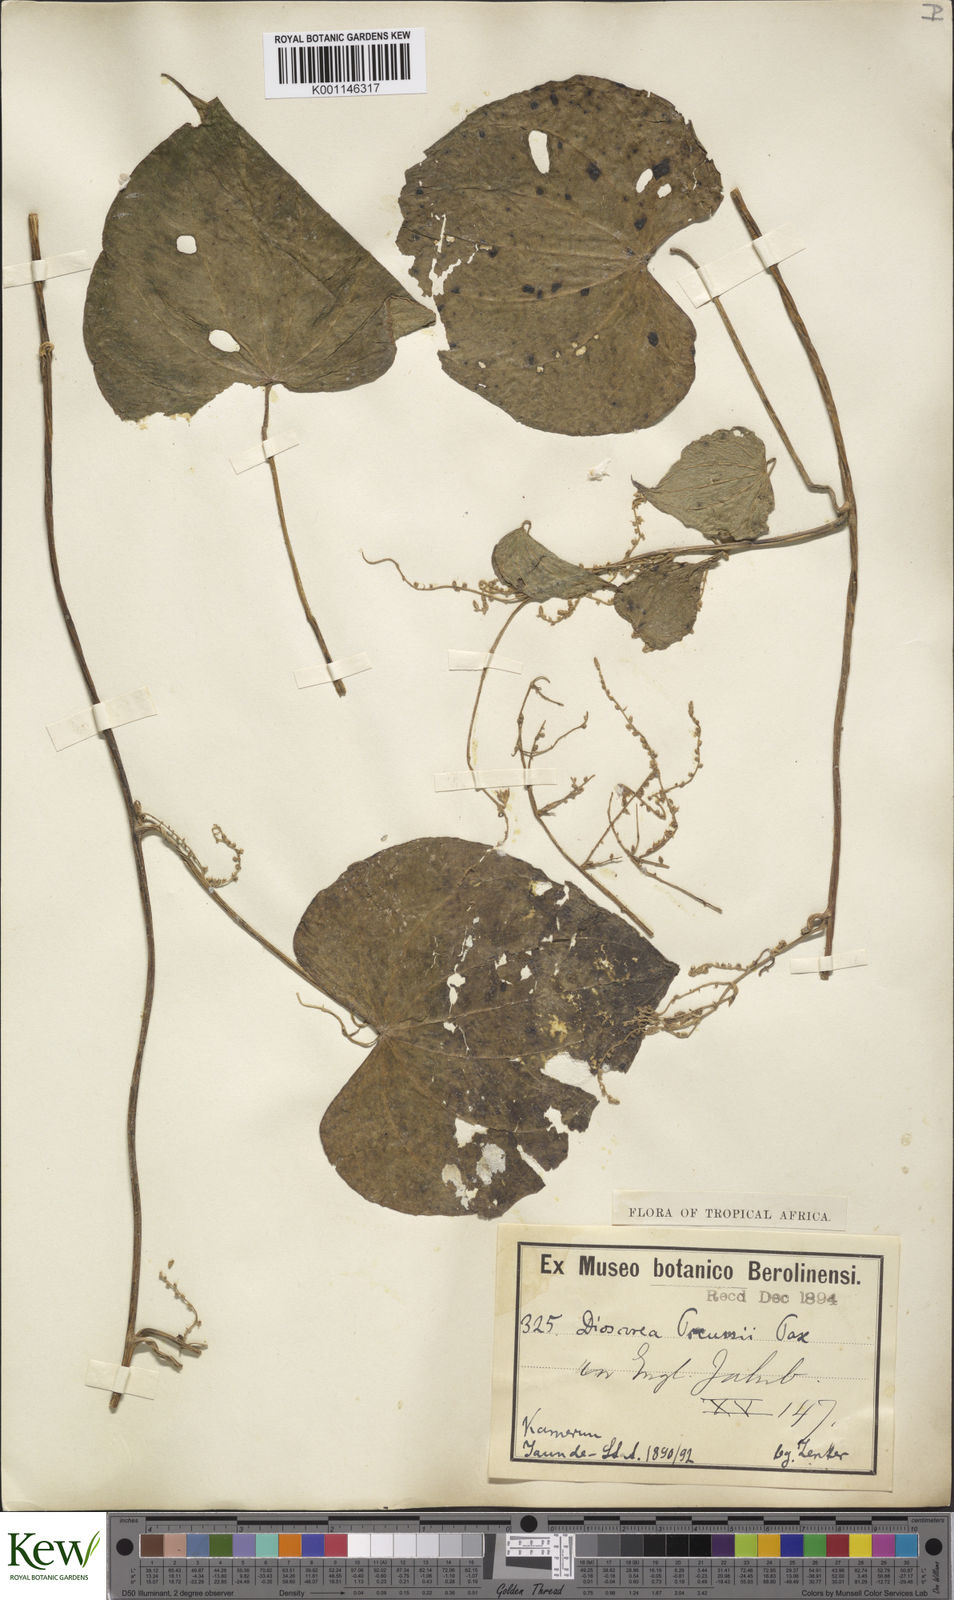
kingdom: Plantae
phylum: Tracheophyta
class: Liliopsida
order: Dioscoreales
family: Dioscoreaceae
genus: Dioscorea
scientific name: Dioscorea preussii
